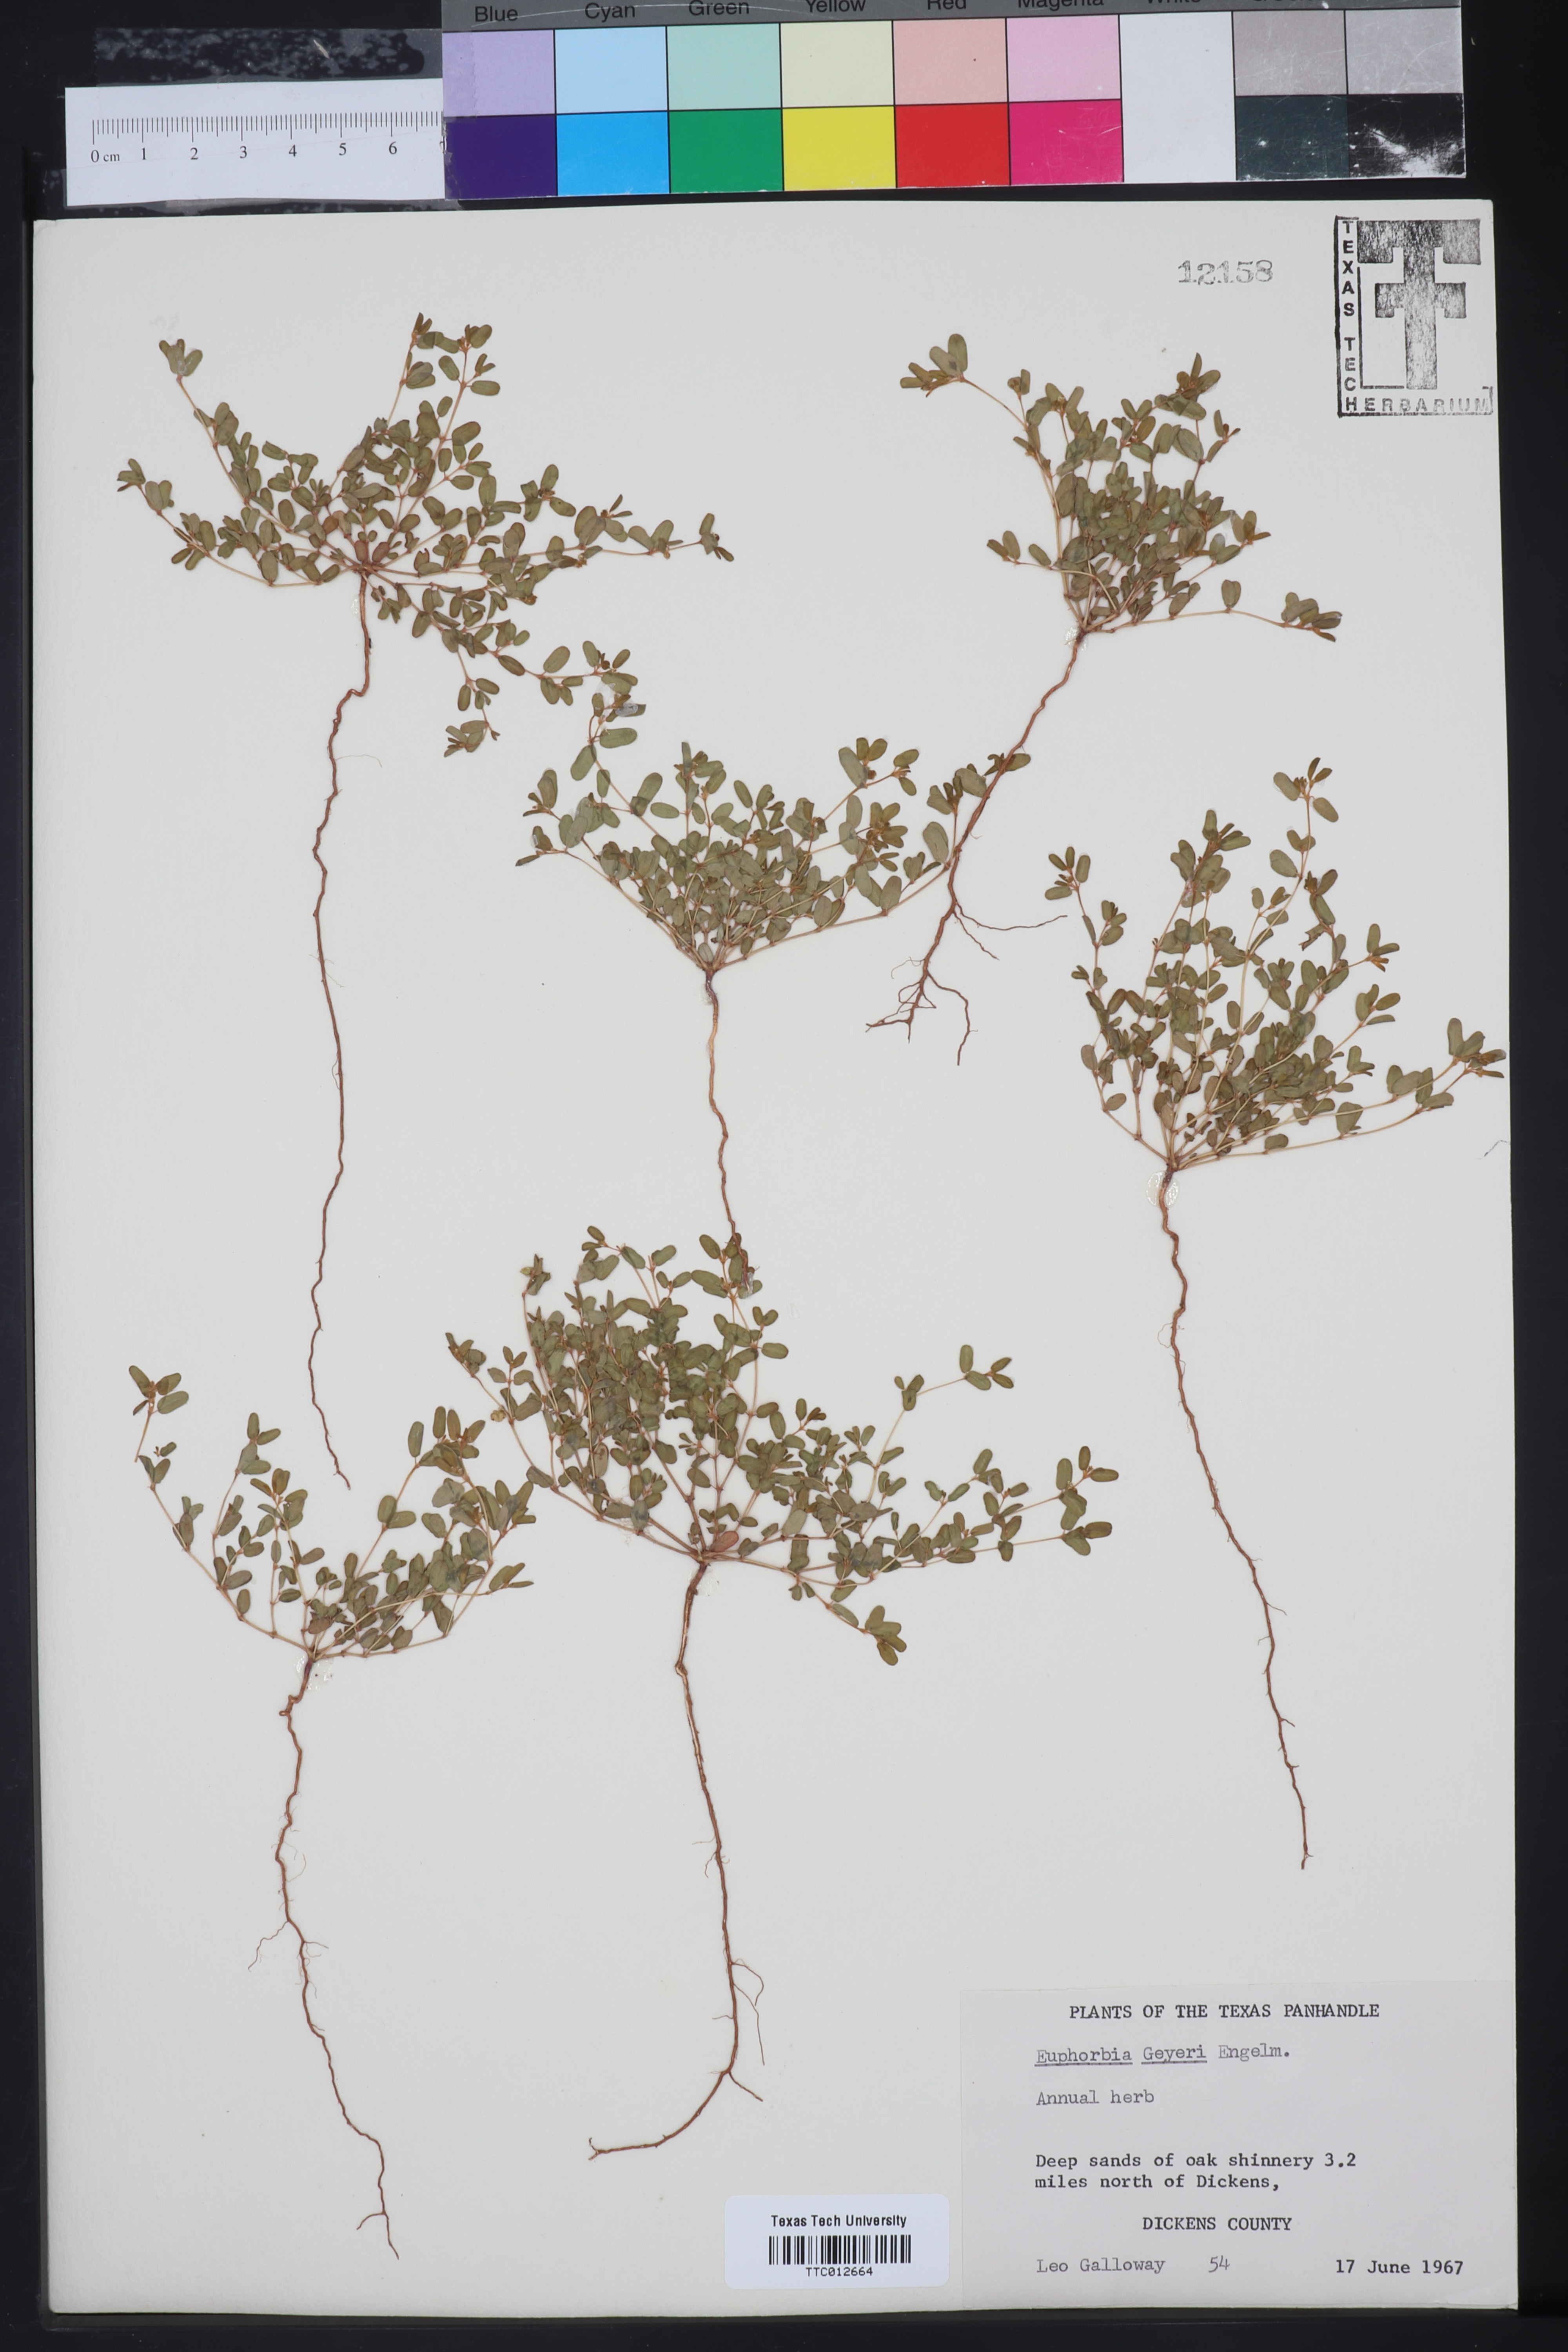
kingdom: Plantae
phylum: Tracheophyta
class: Magnoliopsida
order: Malpighiales
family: Euphorbiaceae
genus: Euphorbia
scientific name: Euphorbia geyeri
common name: Geyer's spurge
